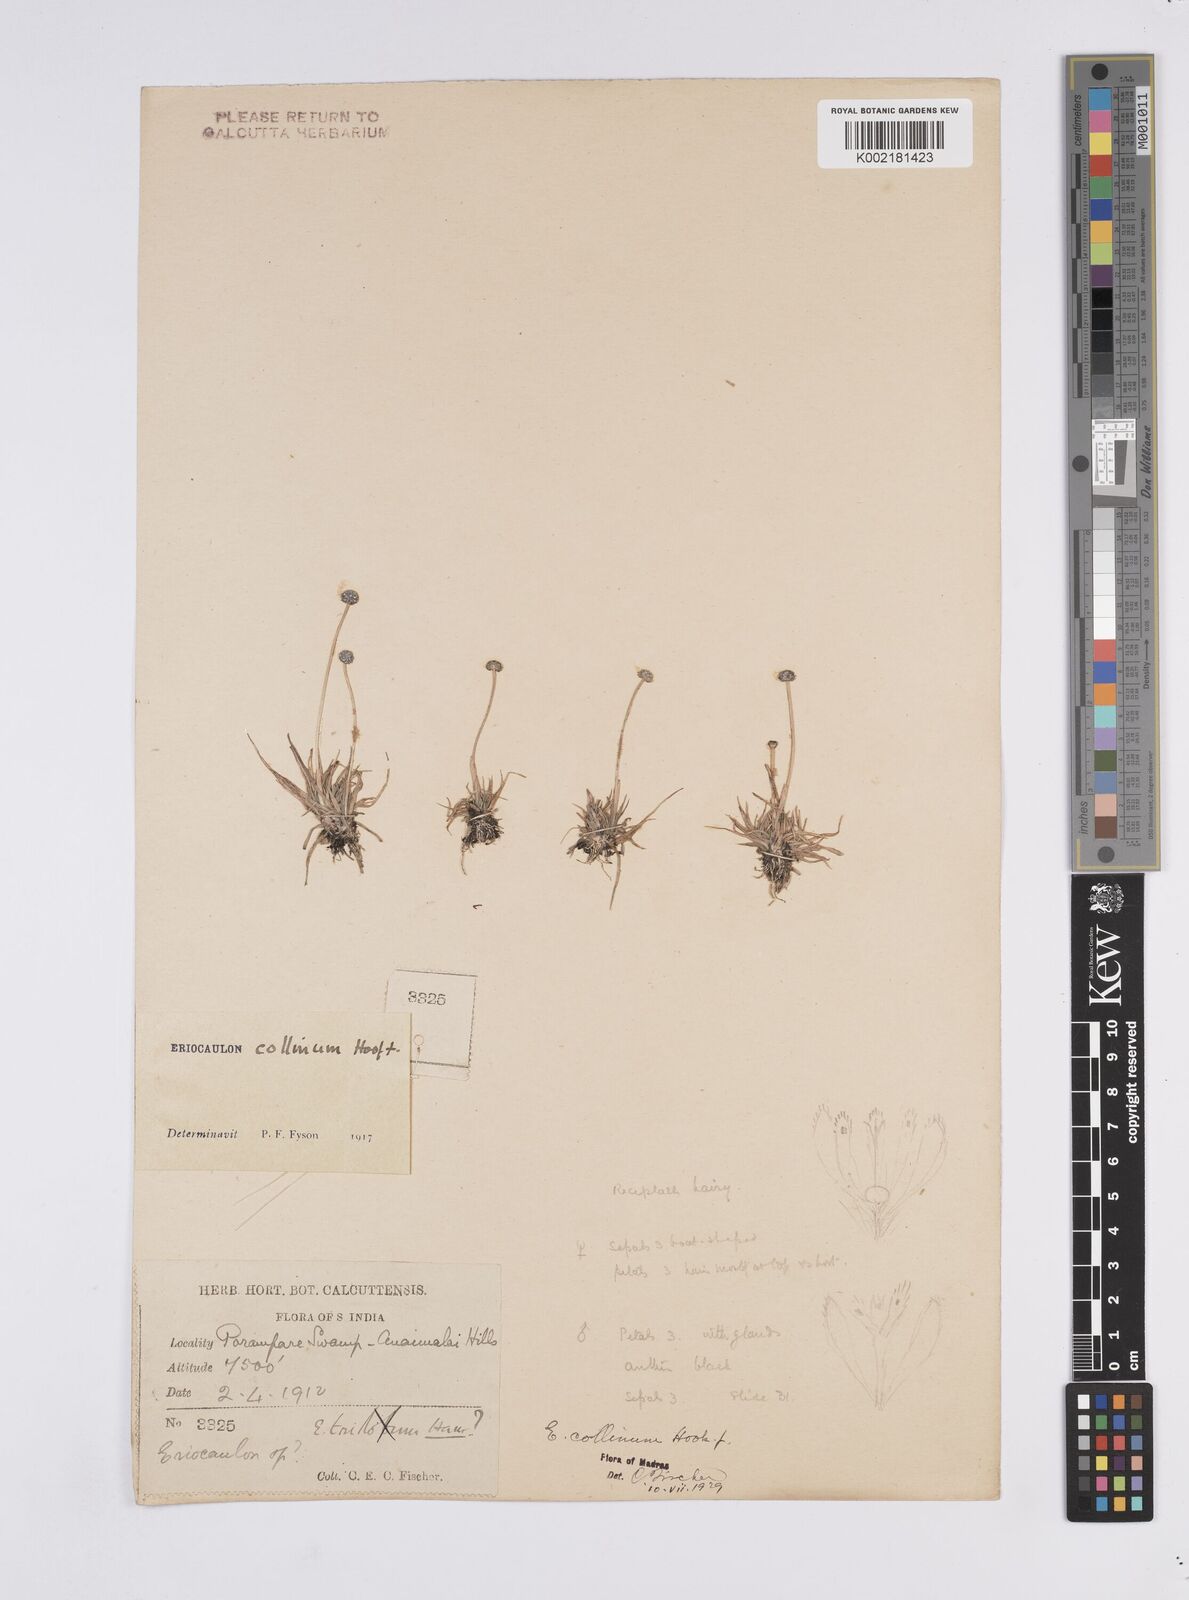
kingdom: Plantae
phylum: Tracheophyta
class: Liliopsida
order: Poales
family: Eriocaulaceae
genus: Eriocaulon
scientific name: Eriocaulon odoratum
